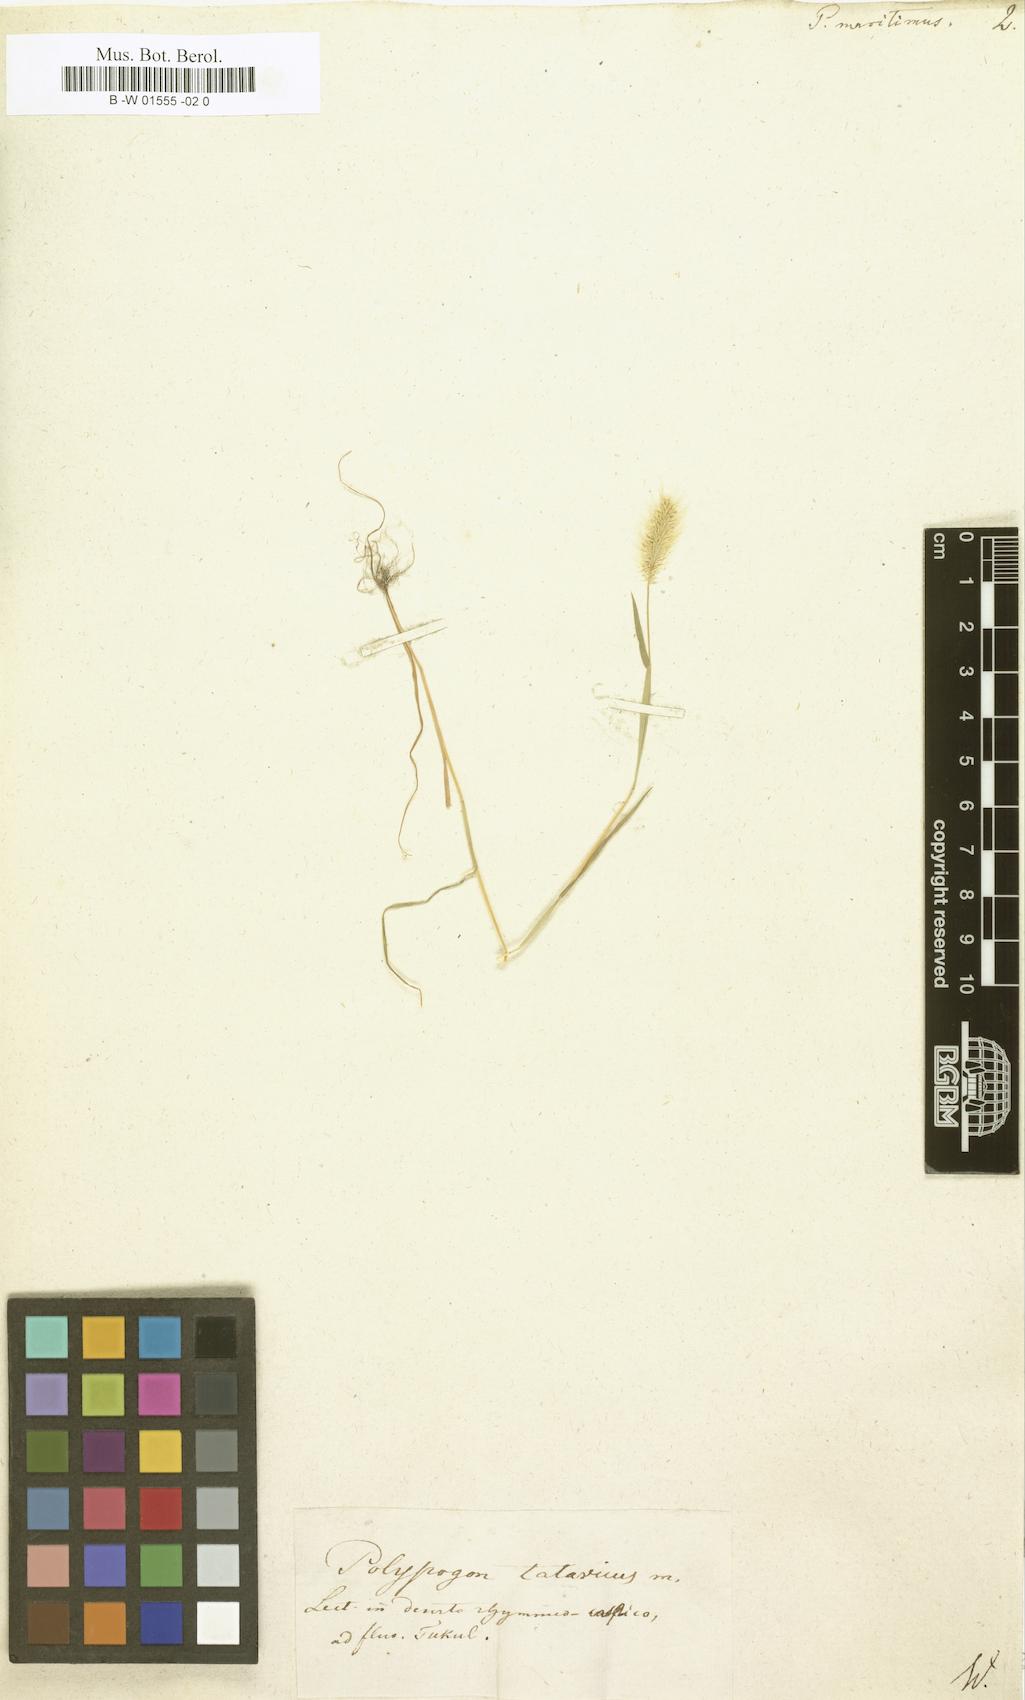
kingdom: Plantae
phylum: Tracheophyta
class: Liliopsida
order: Poales
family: Poaceae
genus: Polypogon
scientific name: Polypogon maritimus
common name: Mediterranean rabbitsfoot grass
